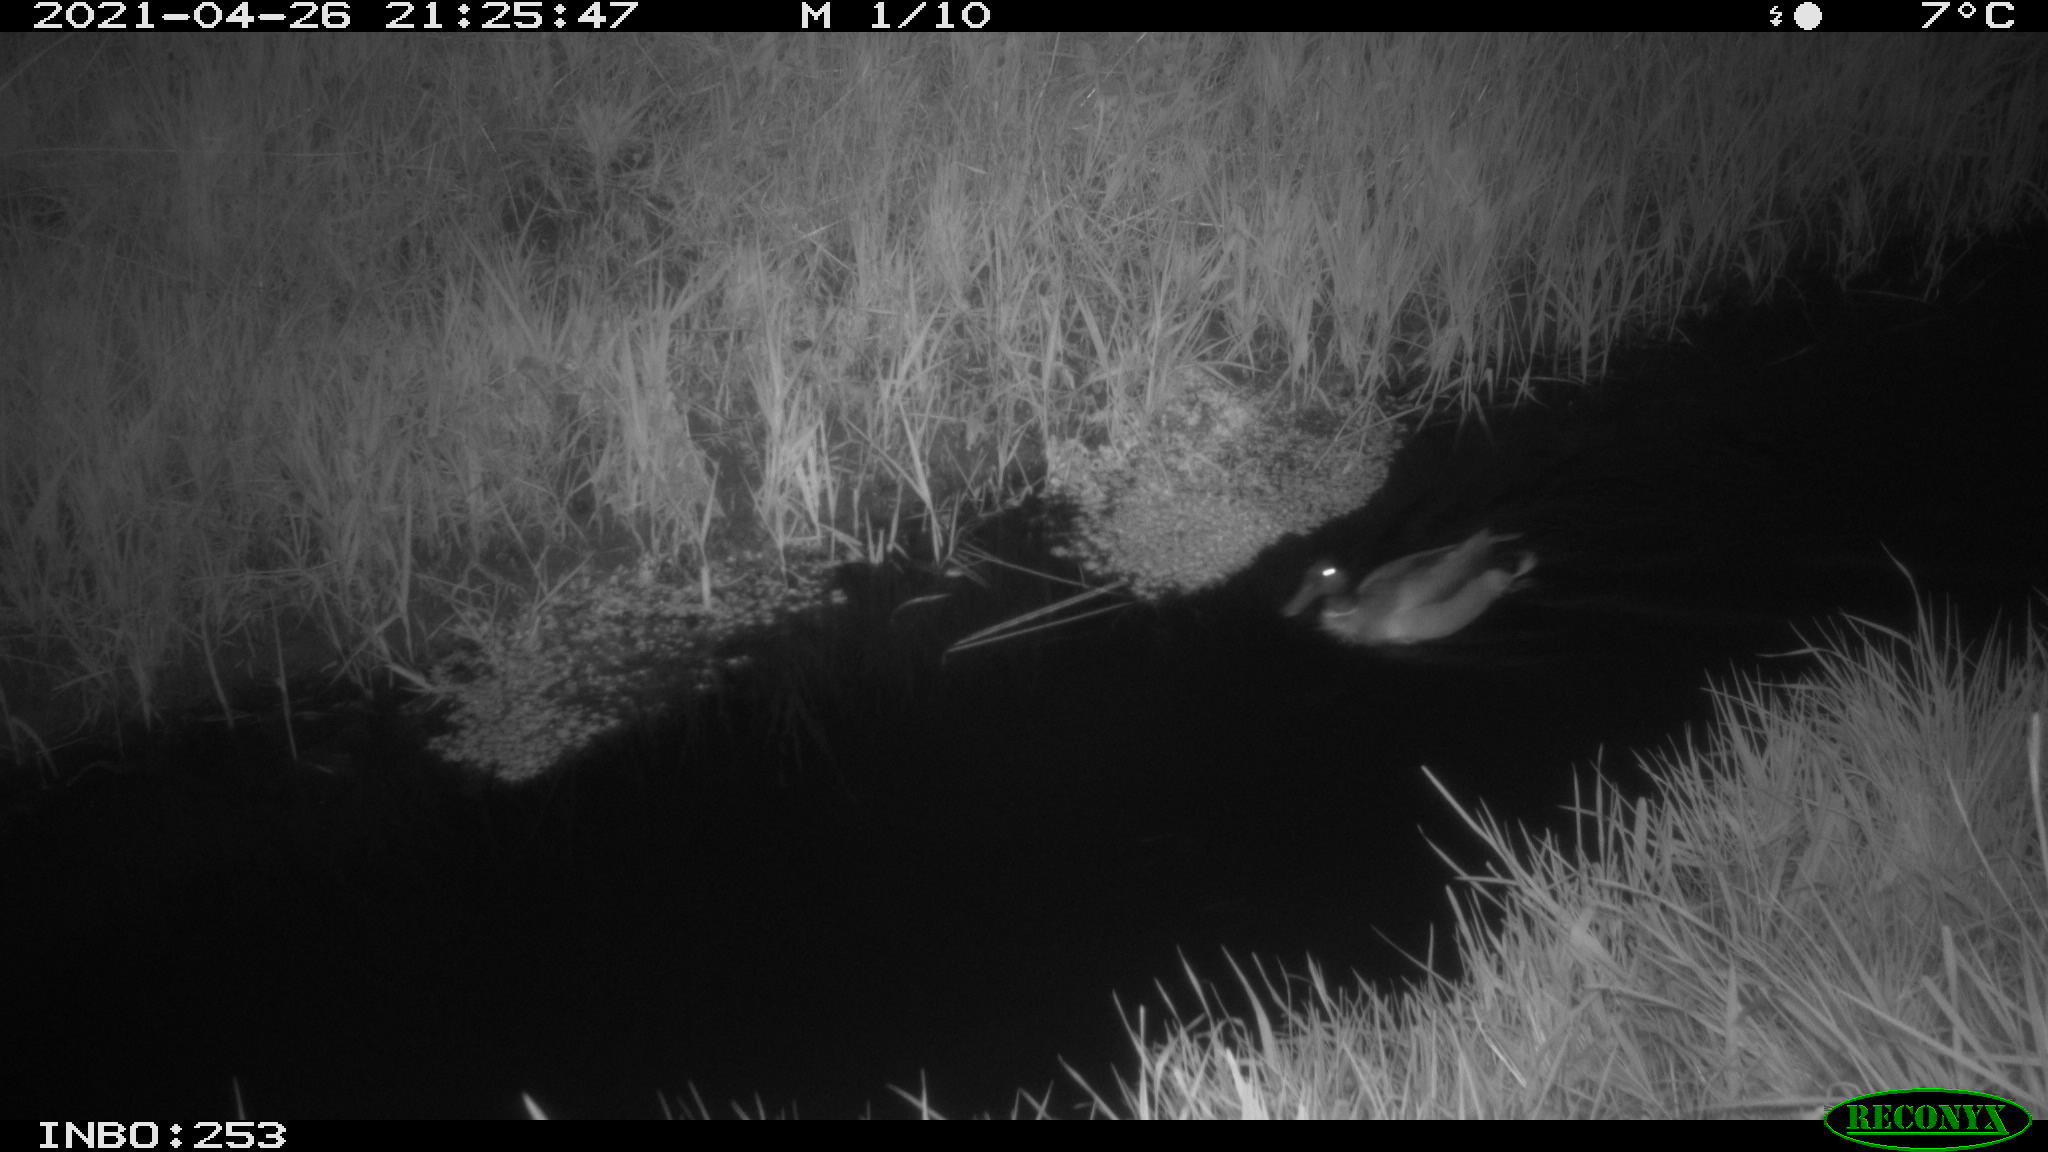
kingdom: Animalia
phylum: Chordata
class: Aves
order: Anseriformes
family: Anatidae
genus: Anas
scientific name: Anas platyrhynchos
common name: Mallard
